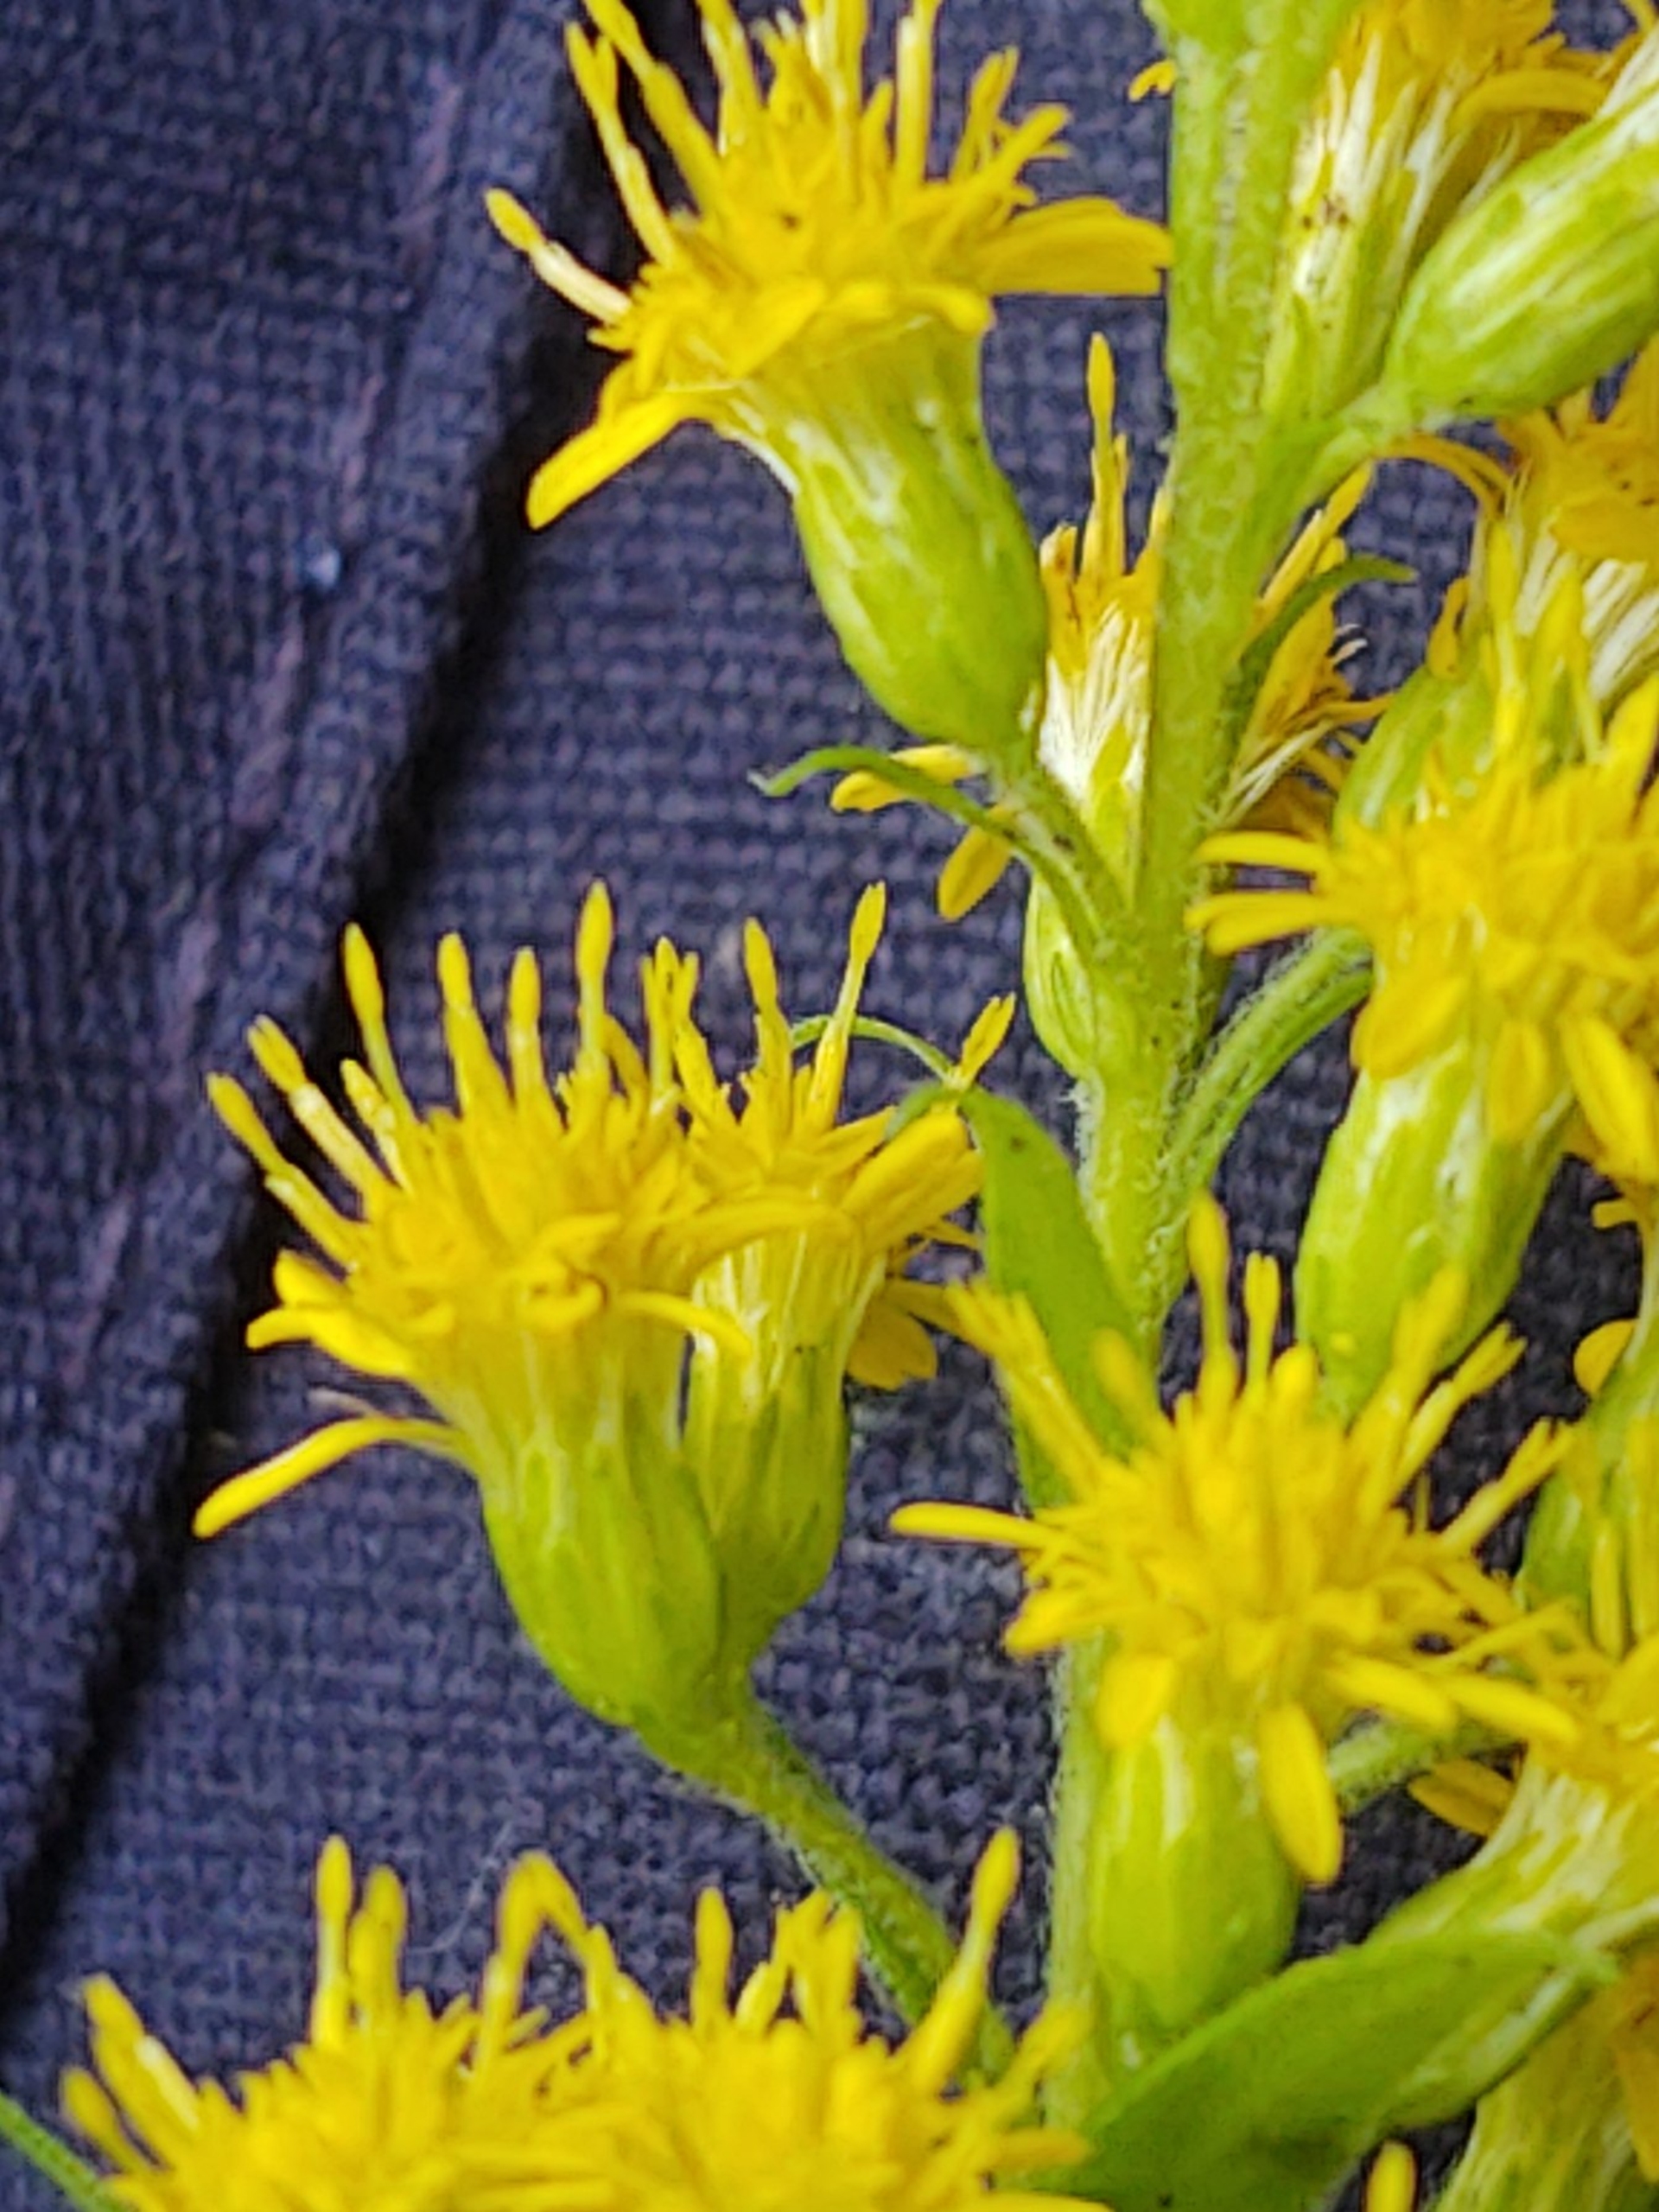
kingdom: Plantae
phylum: Tracheophyta
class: Magnoliopsida
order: Asterales
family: Asteraceae
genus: Solidago
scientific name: Solidago canadensis
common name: Kanadisk gyldenris
